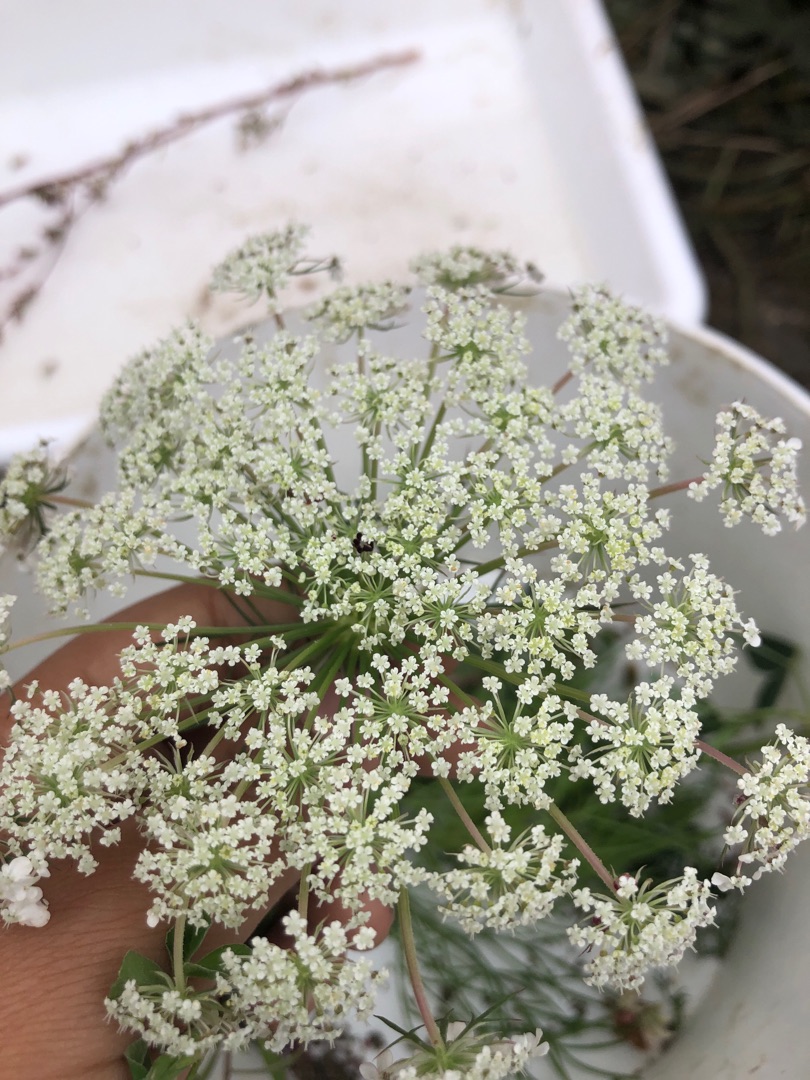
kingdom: Plantae
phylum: Tracheophyta
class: Magnoliopsida
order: Apiales
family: Apiaceae
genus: Daucus
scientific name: Daucus carota
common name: Gulerod
